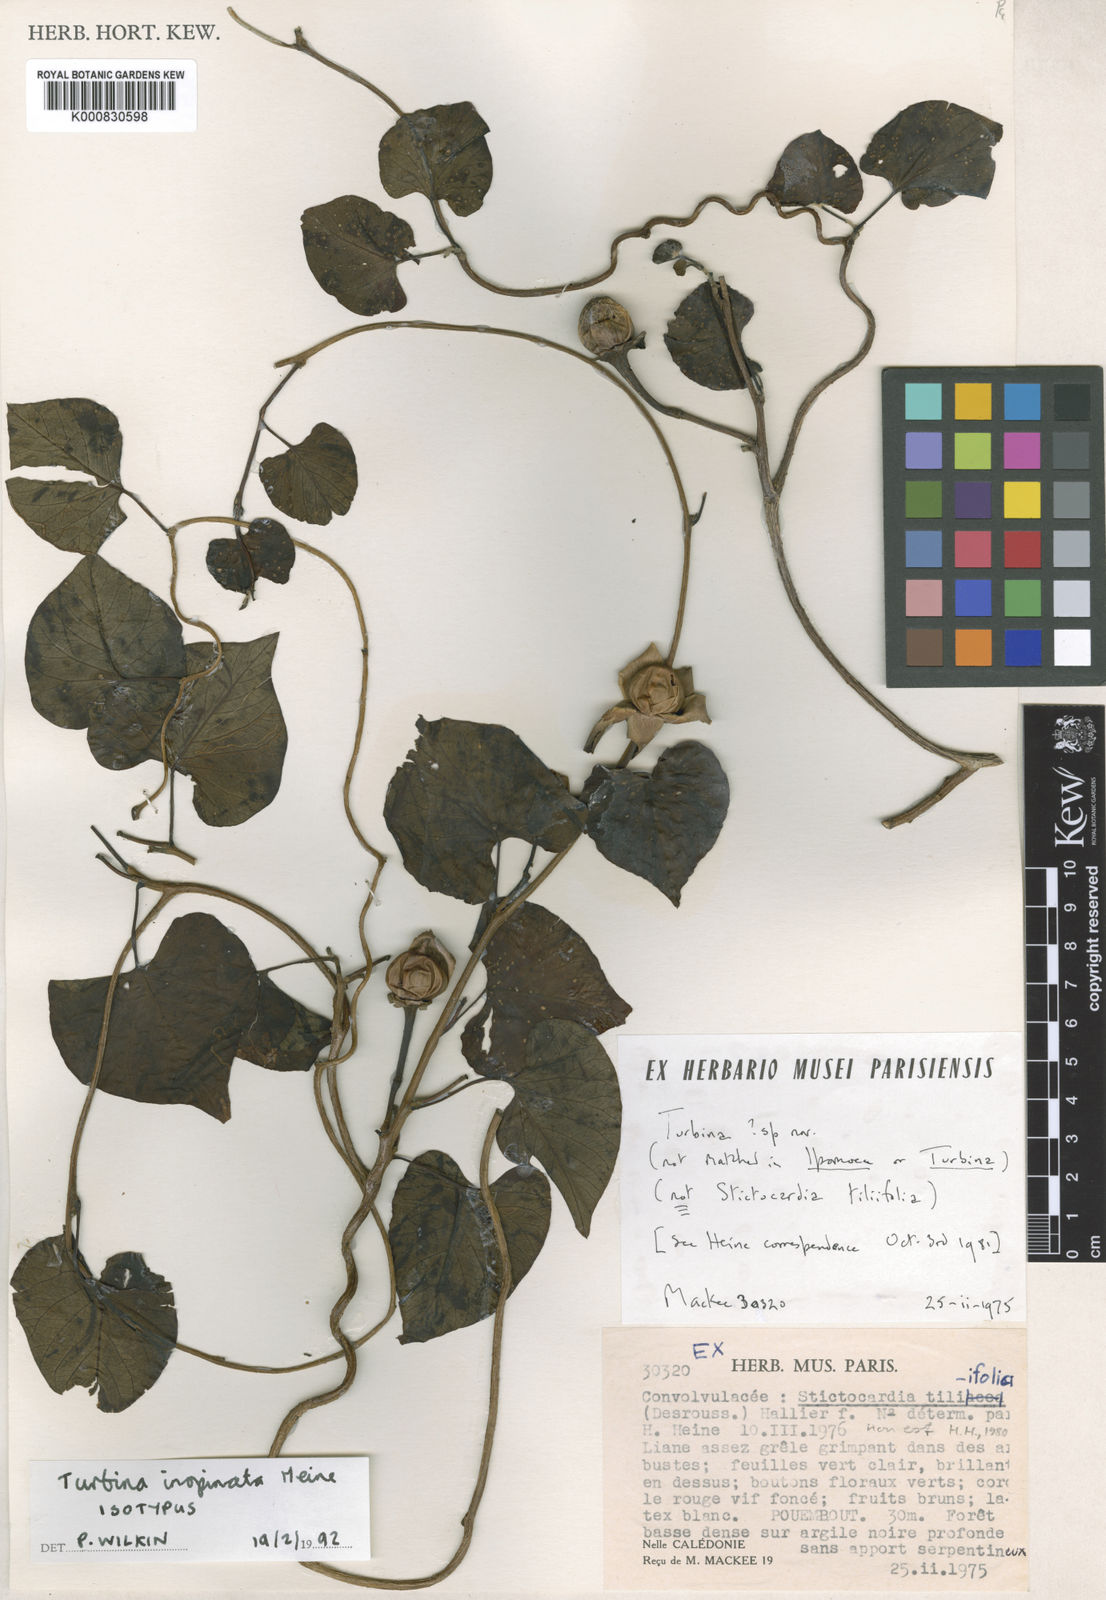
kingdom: Plantae
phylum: Tracheophyta
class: Magnoliopsida
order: Solanales
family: Convolvulaceae
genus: Ipomoea
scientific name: Ipomoea inopinata
